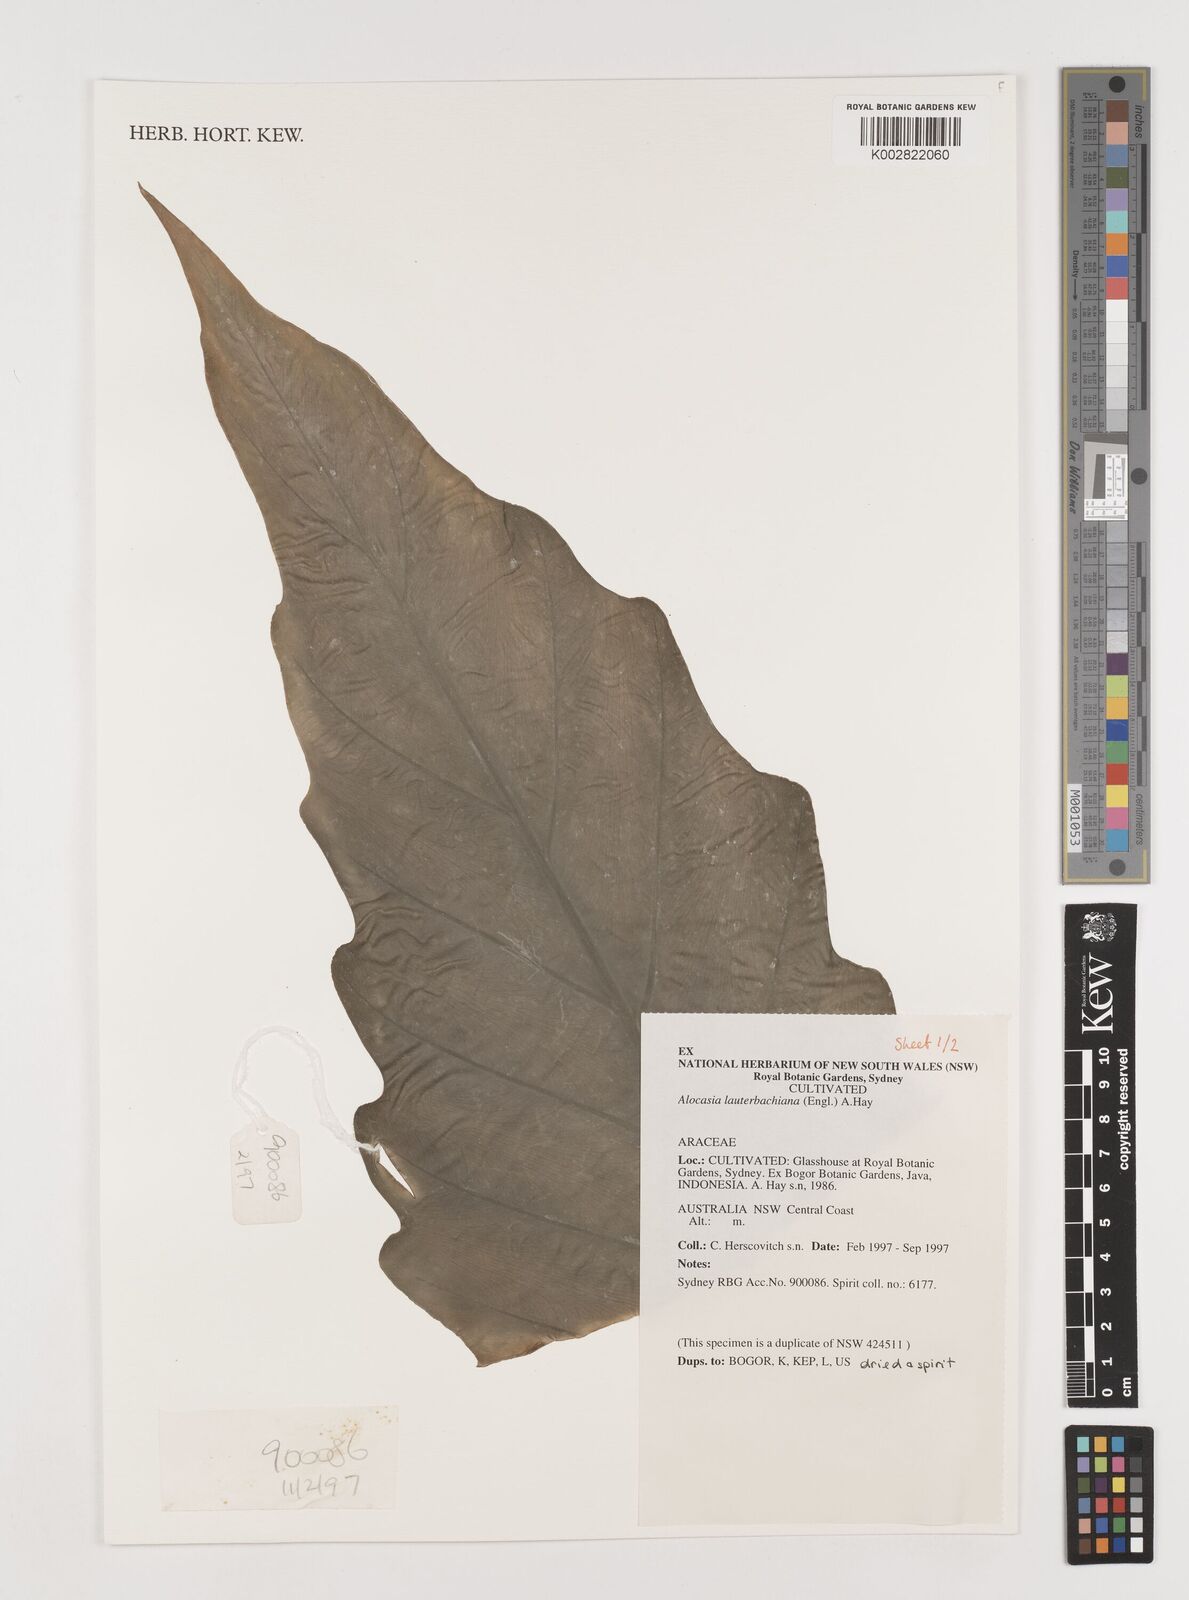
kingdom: Plantae
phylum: Tracheophyta
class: Liliopsida
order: Alismatales
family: Araceae
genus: Alocasia
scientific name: Alocasia lauterbachiana
